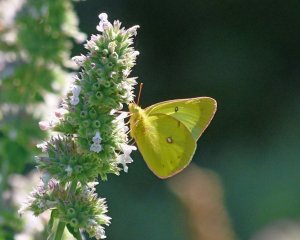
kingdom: Animalia
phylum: Arthropoda
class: Insecta
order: Lepidoptera
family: Pieridae
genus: Colias
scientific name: Colias philodice
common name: Clouded Sulphur
